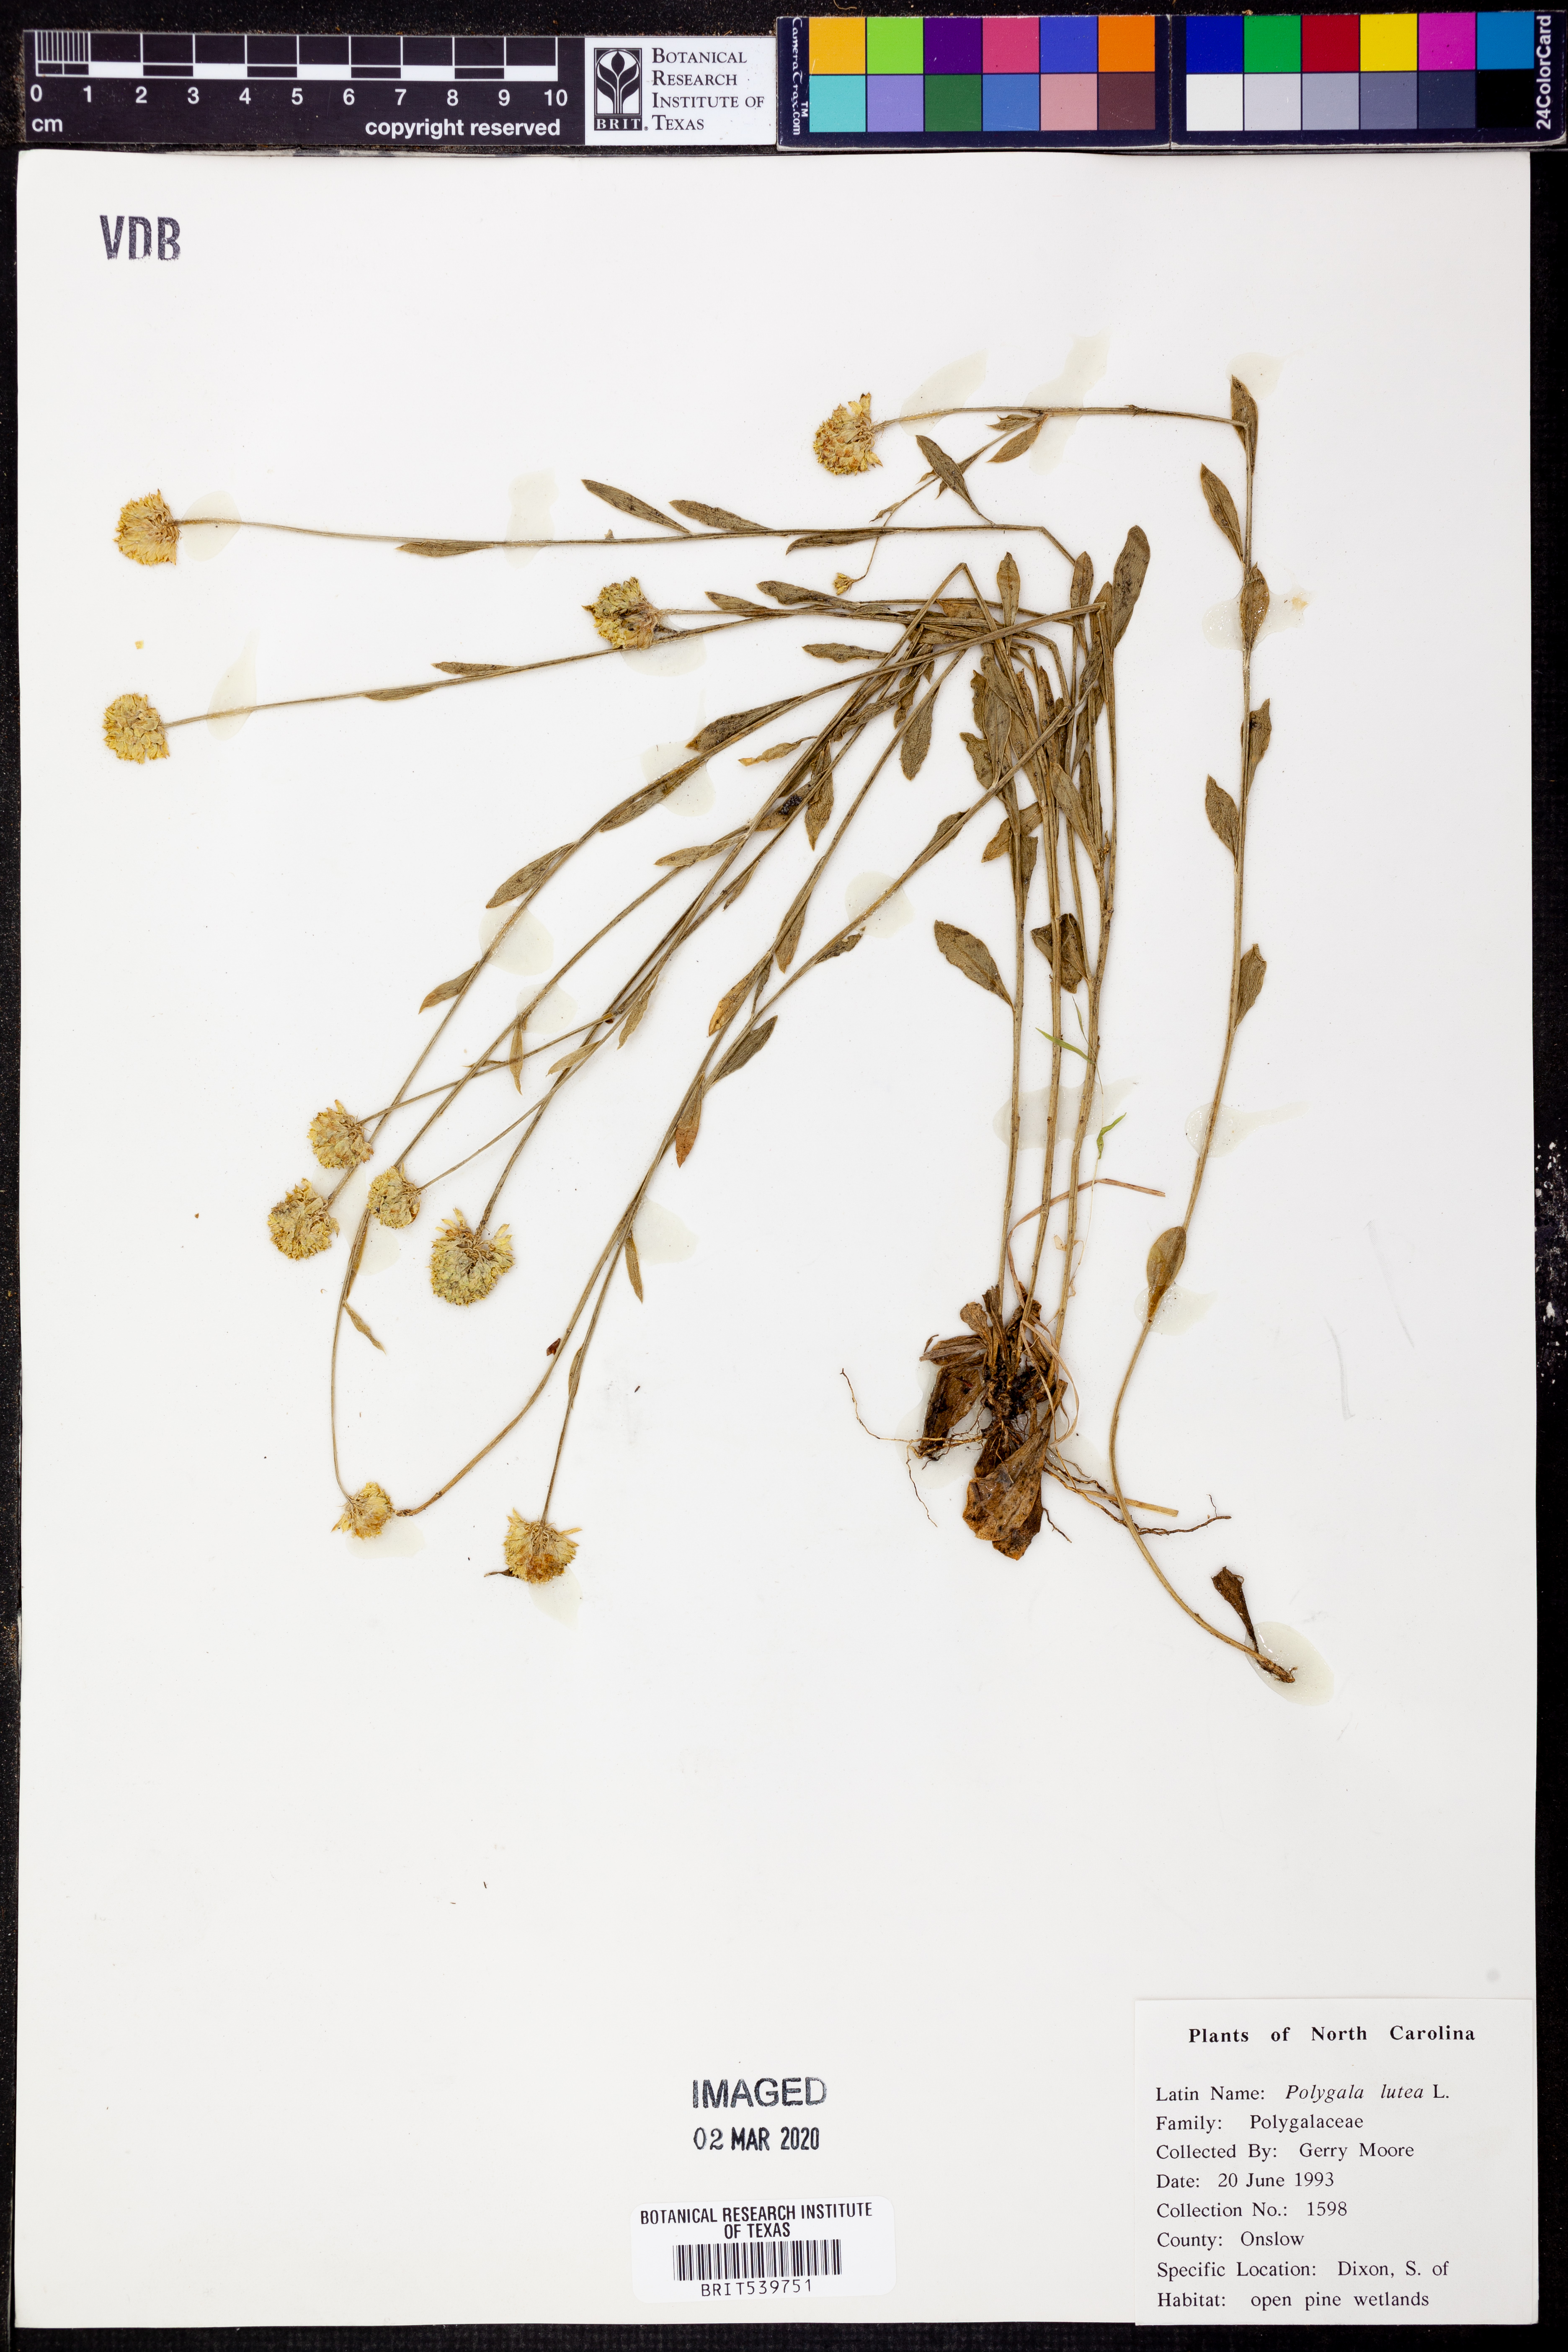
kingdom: Plantae
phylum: Tracheophyta
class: Magnoliopsida
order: Fabales
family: Polygalaceae
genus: Polygala
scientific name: Polygala lutea
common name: Orange milkwort
